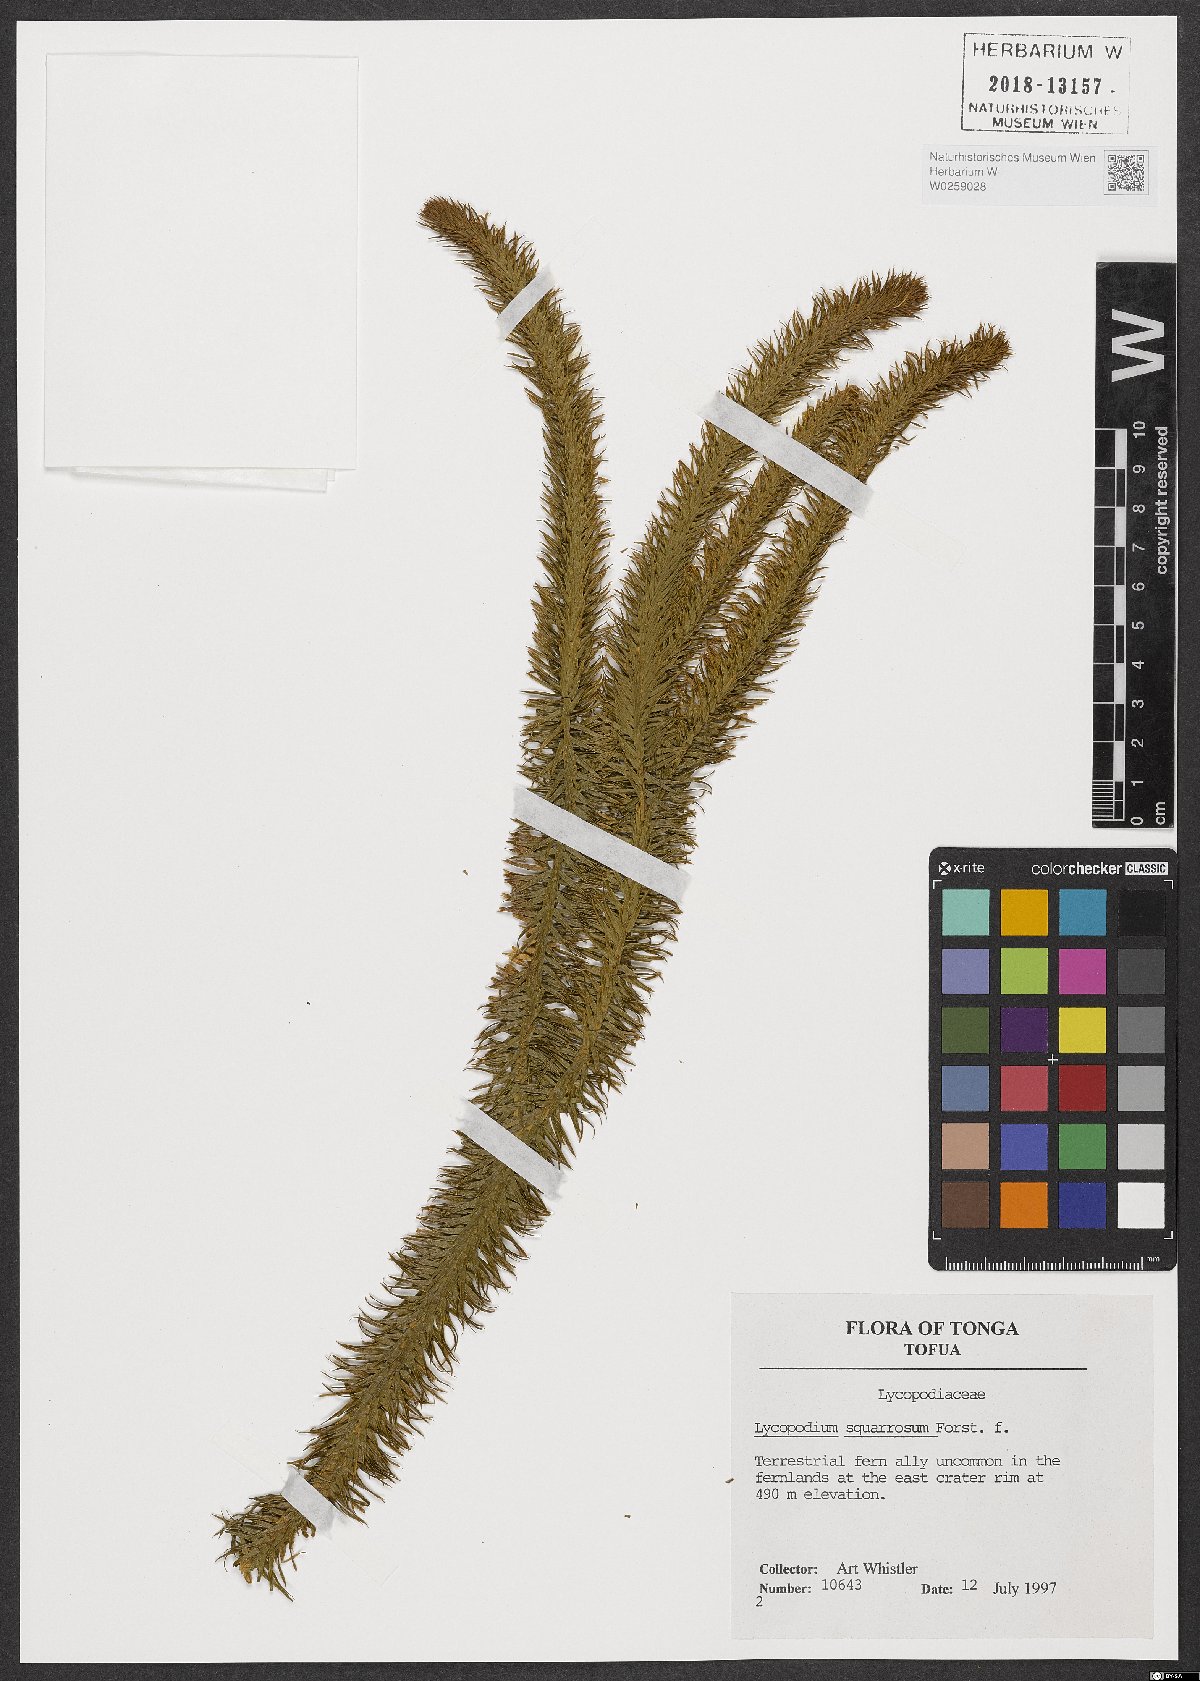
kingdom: Plantae
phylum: Tracheophyta
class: Lycopodiopsida
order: Lycopodiales
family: Lycopodiaceae
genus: Phlegmariurus
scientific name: Phlegmariurus squarrosus
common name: Rock tassel-fern
